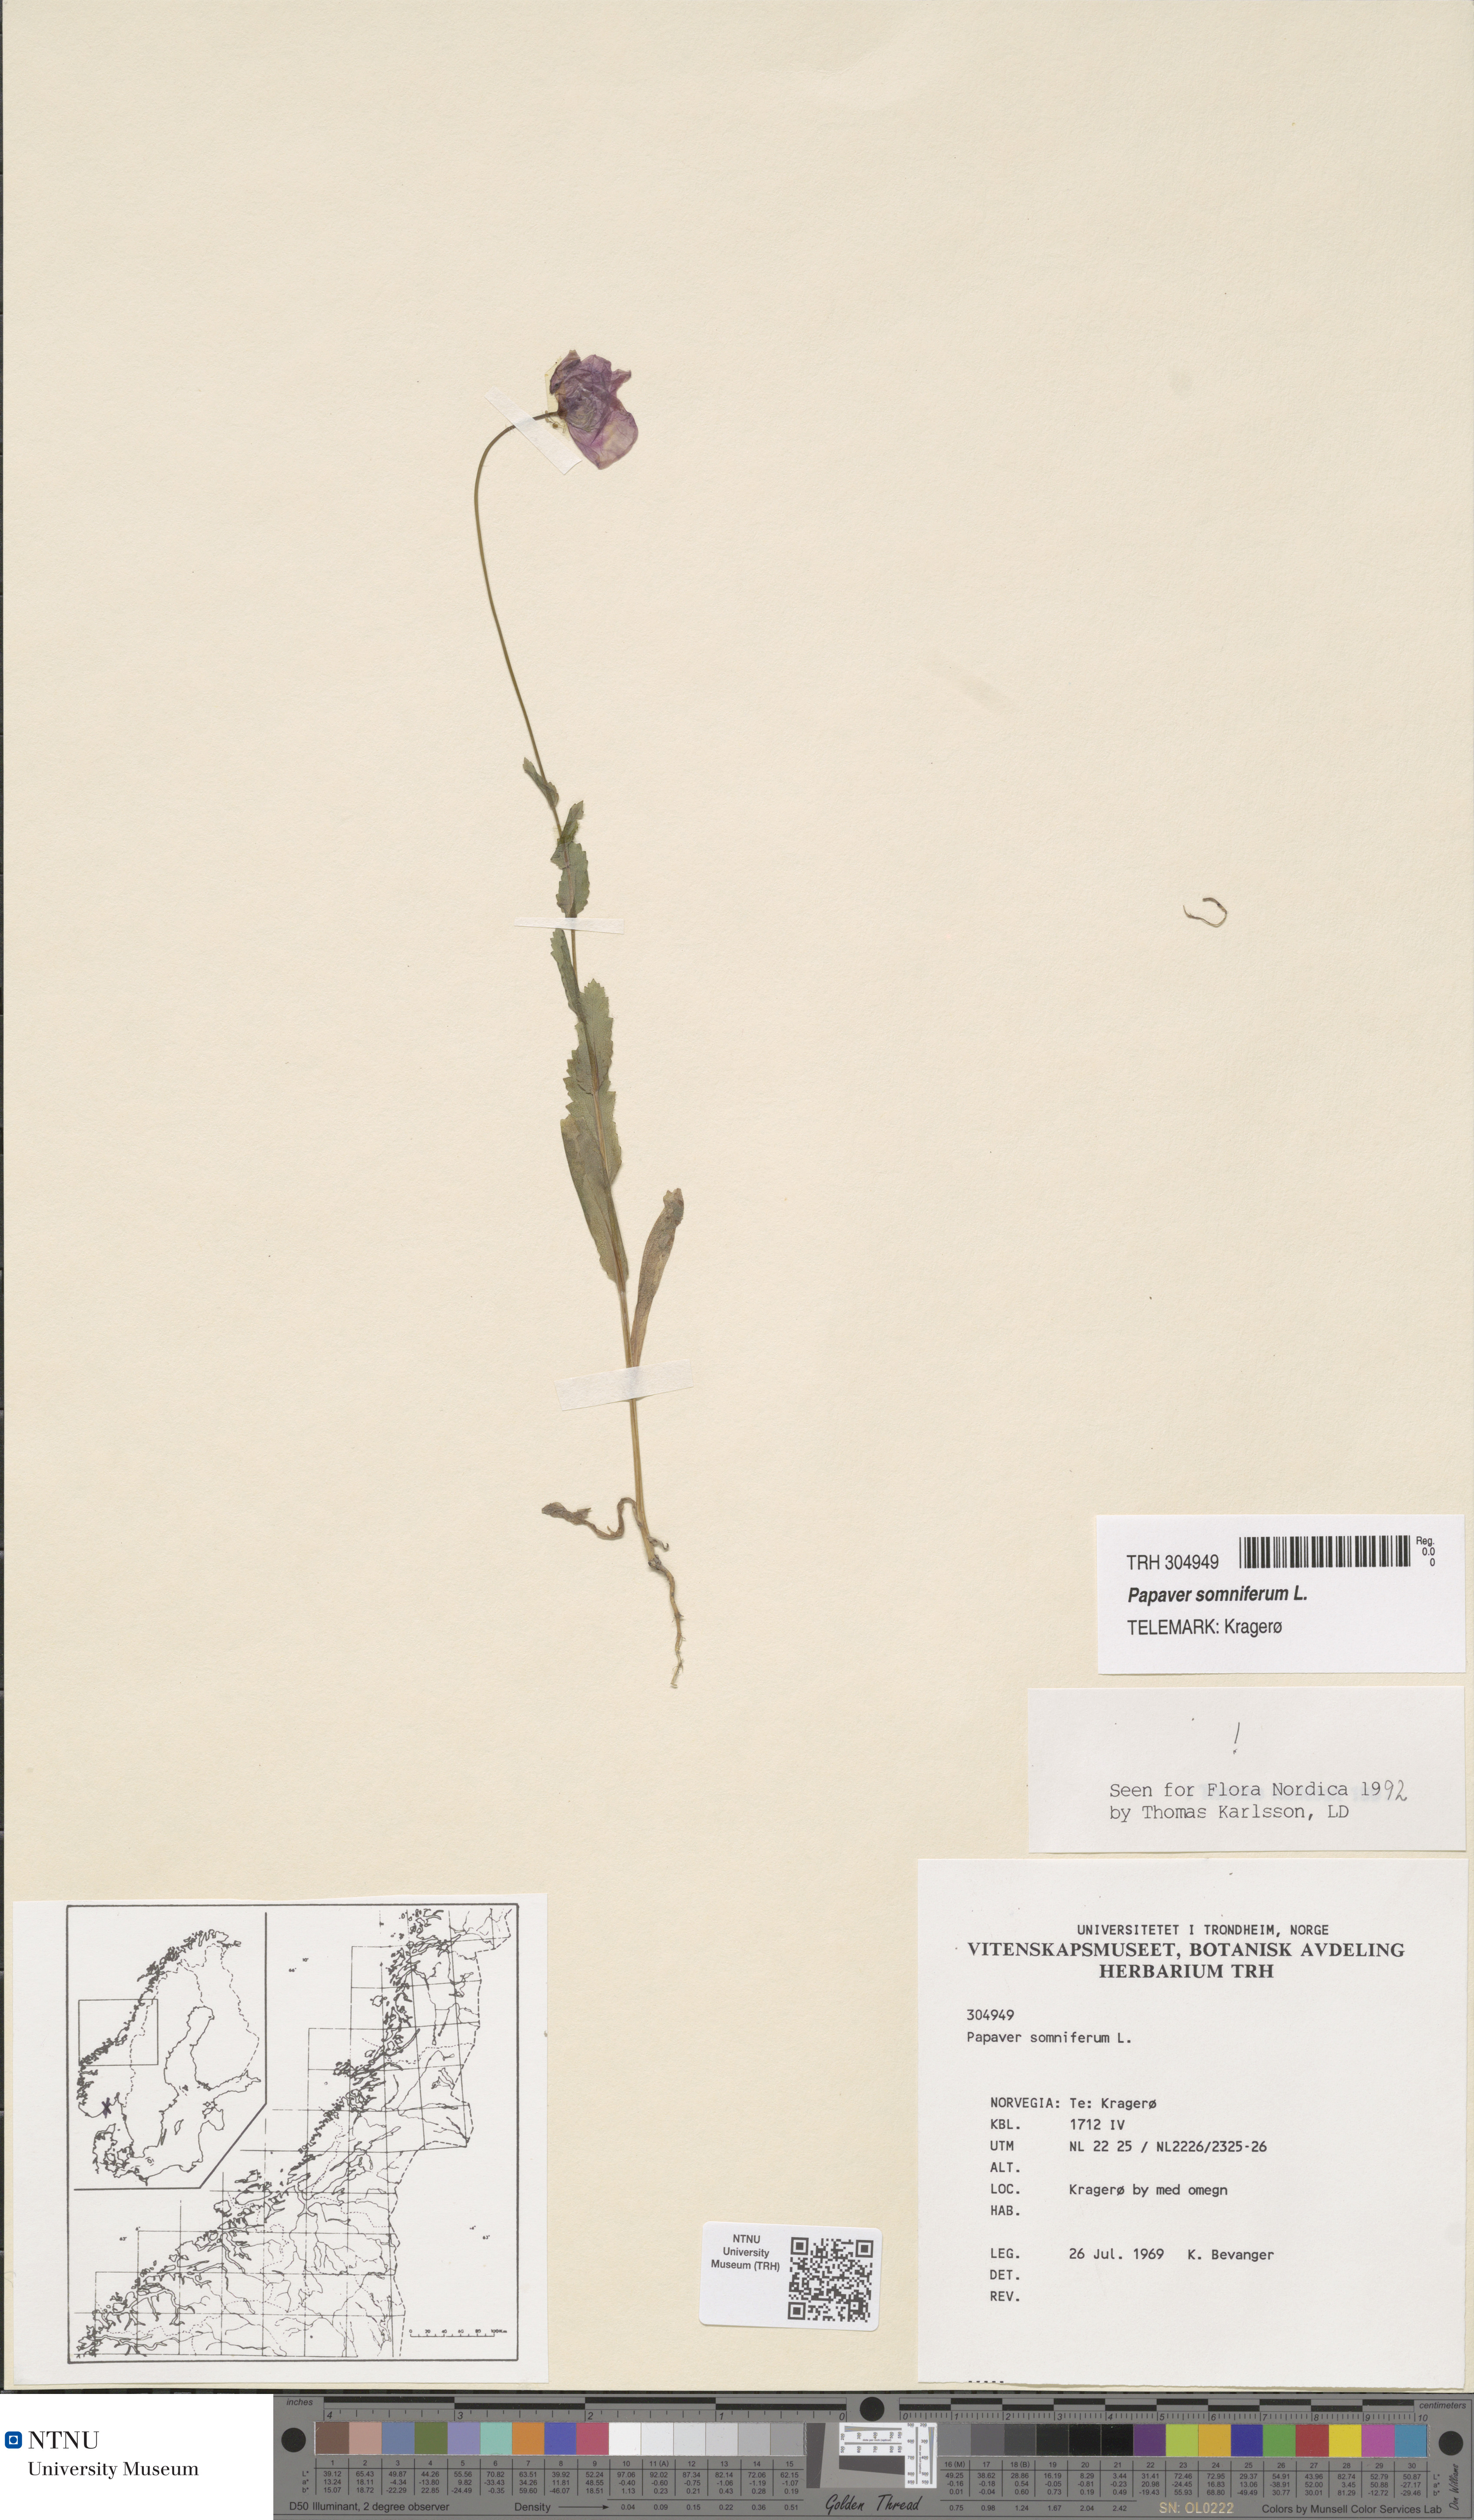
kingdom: Plantae
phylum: Tracheophyta
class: Magnoliopsida
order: Ranunculales
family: Papaveraceae
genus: Papaver
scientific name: Papaver somniferum
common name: Opium poppy
